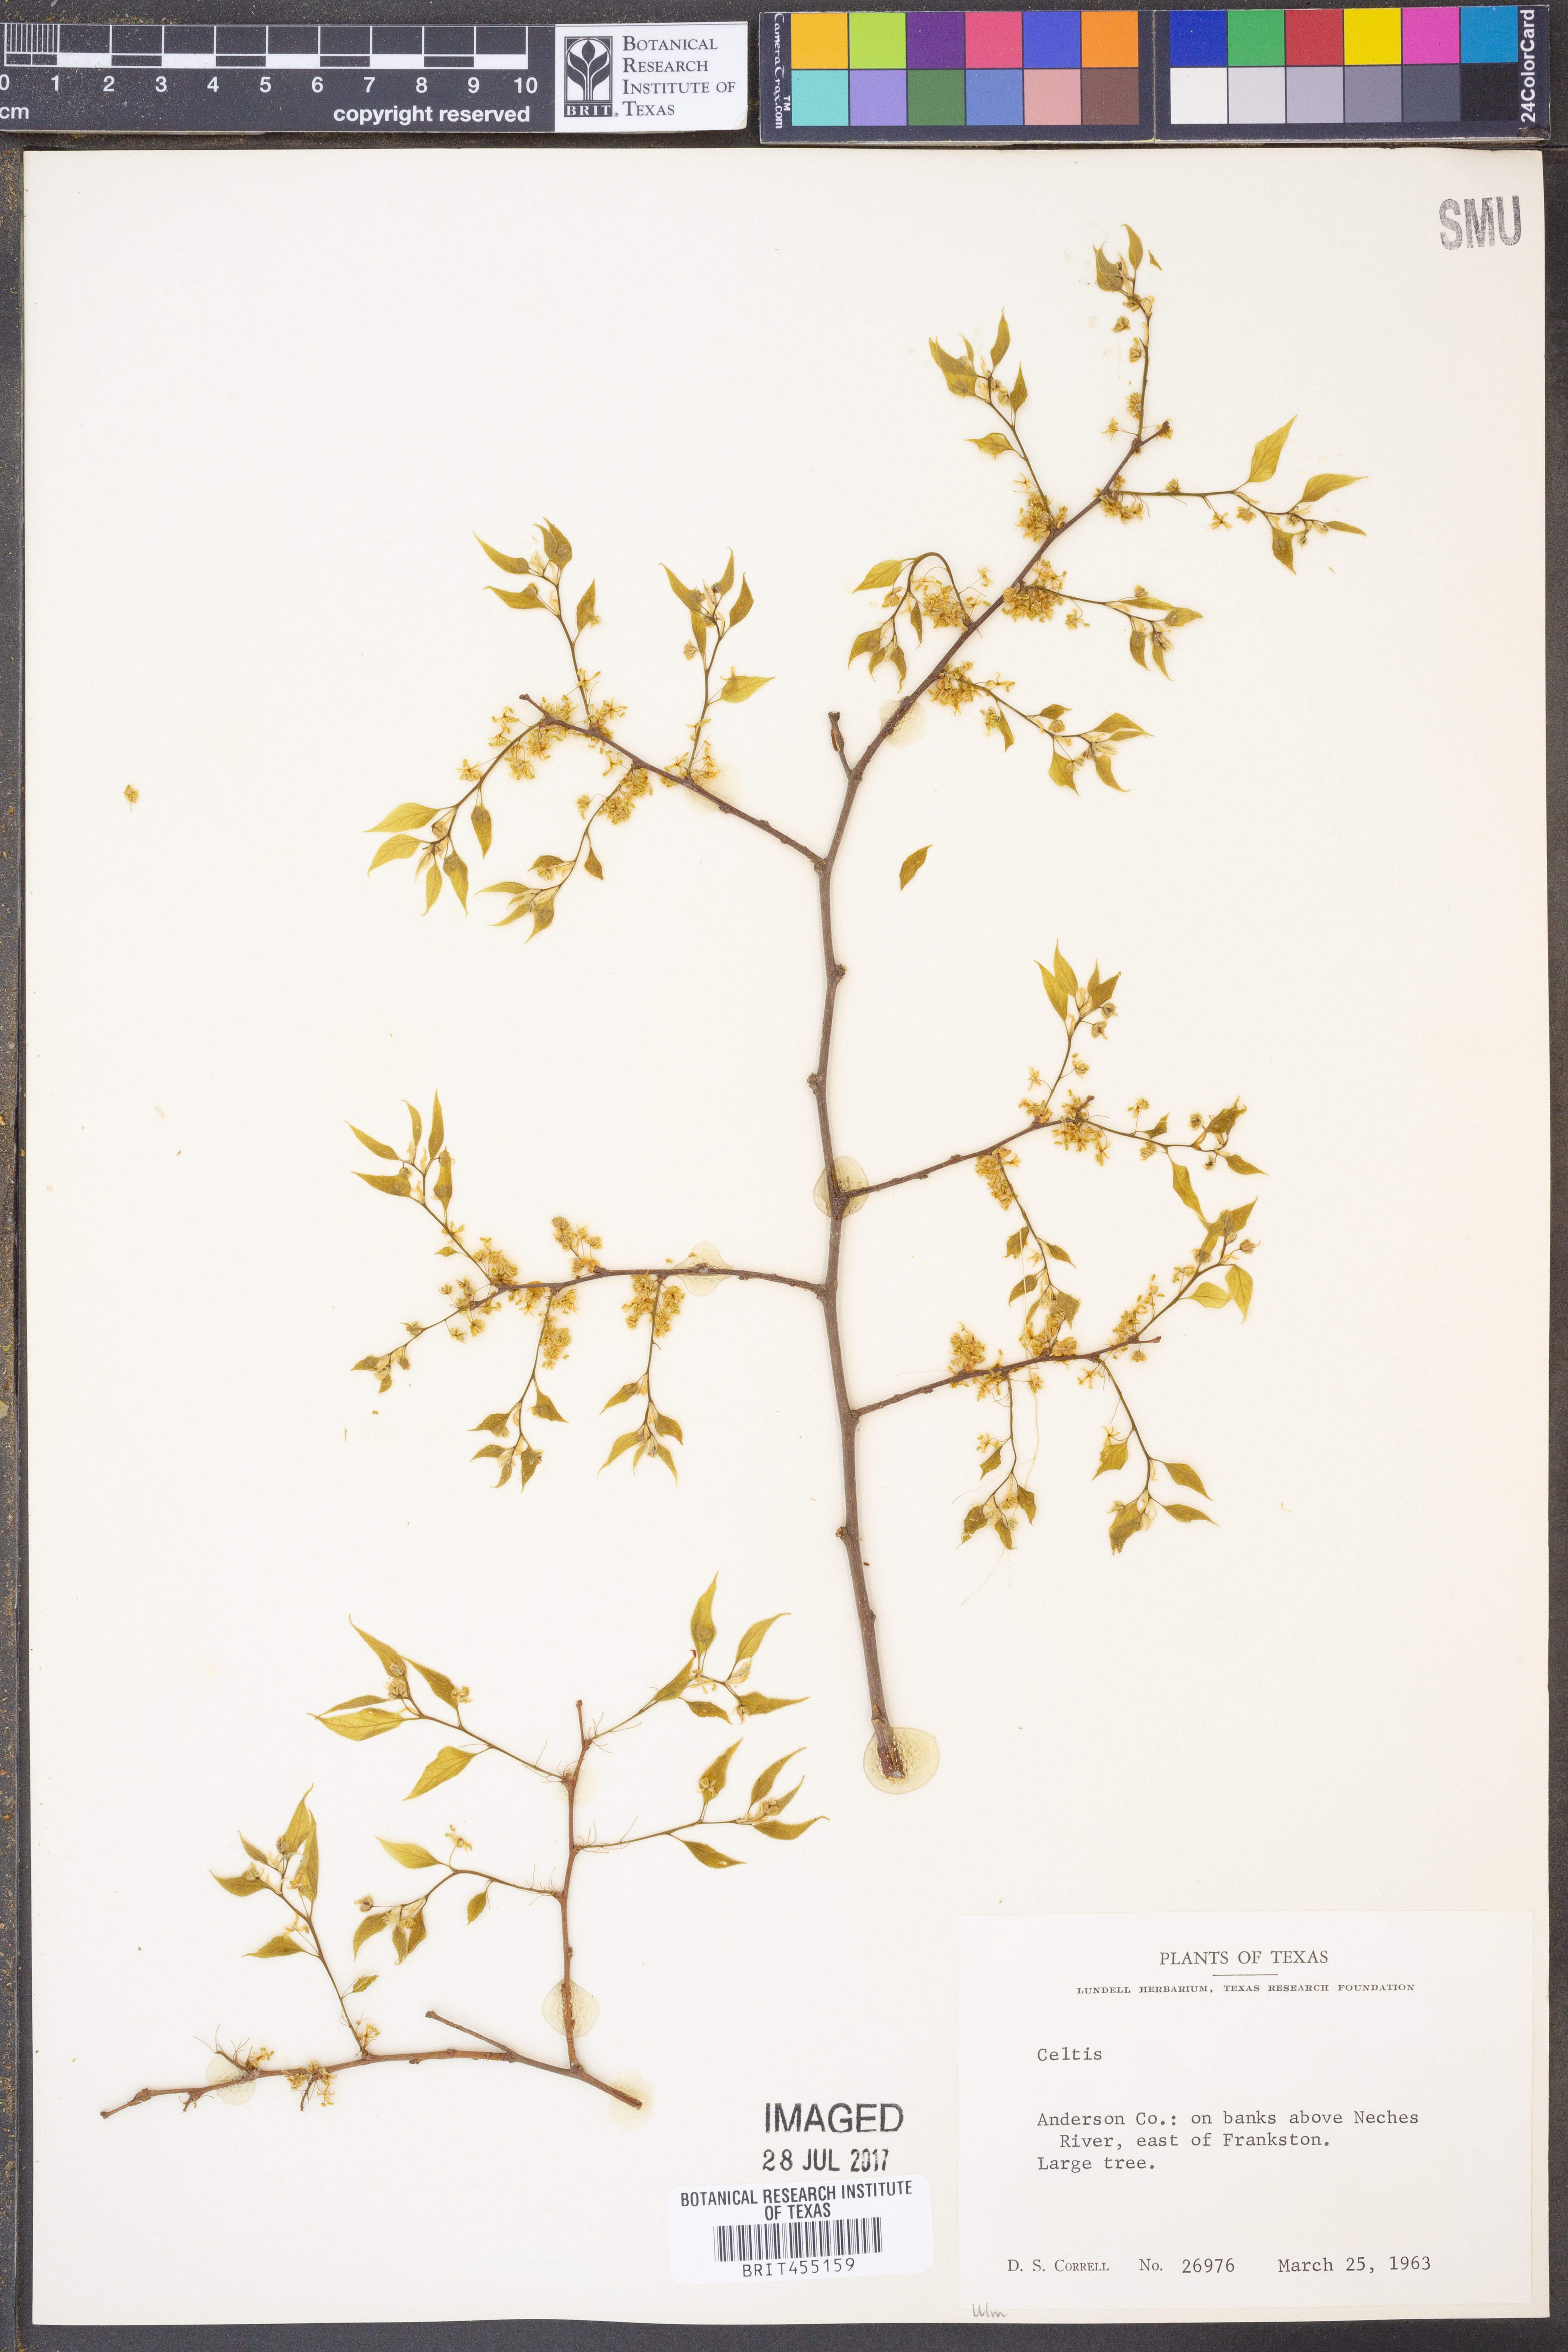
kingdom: Plantae
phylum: Tracheophyta
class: Magnoliopsida
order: Rosales
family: Cannabaceae
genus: Celtis
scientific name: Celtis
